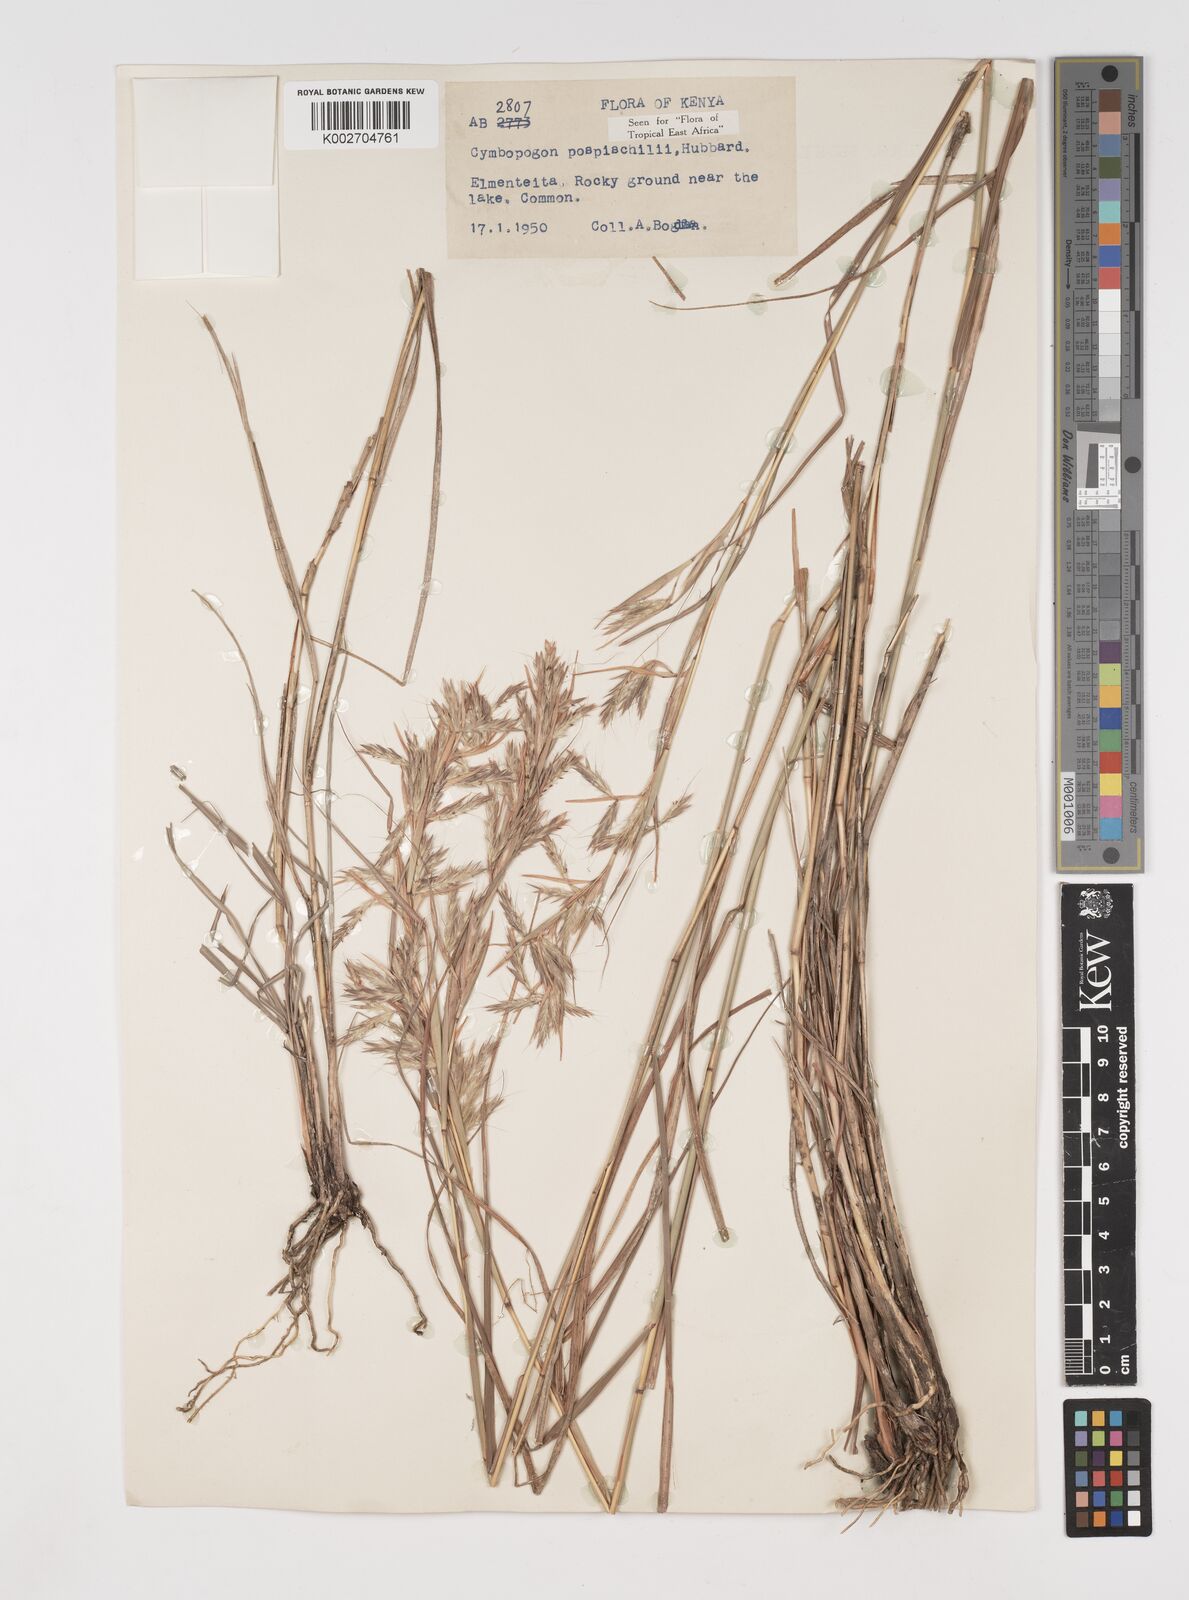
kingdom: Plantae
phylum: Tracheophyta
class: Liliopsida
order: Poales
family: Poaceae
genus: Cymbopogon
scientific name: Cymbopogon pospischilii
